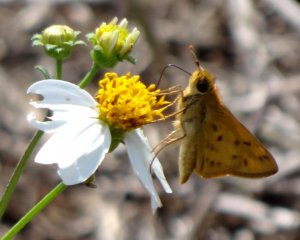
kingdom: Animalia
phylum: Arthropoda
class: Insecta
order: Lepidoptera
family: Hesperiidae
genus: Hylephila
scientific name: Hylephila phyleus
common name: Fiery Skipper
